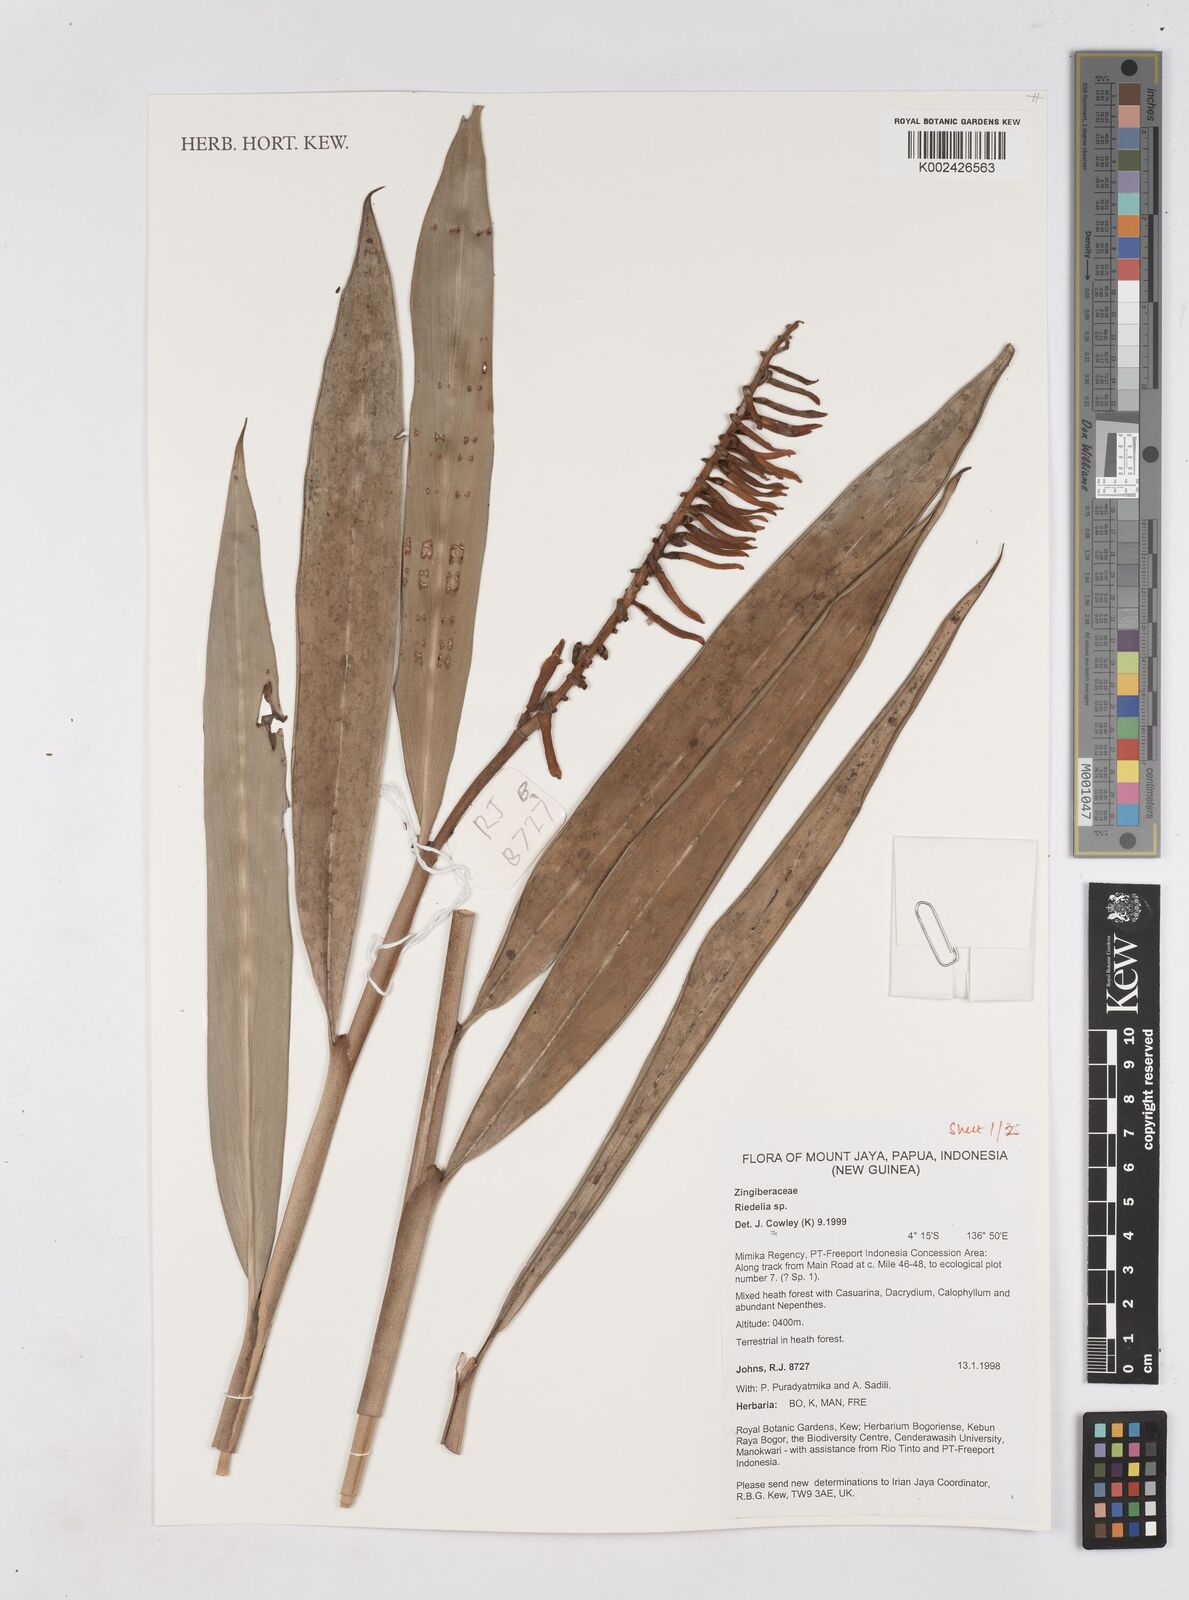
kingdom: Plantae
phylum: Tracheophyta
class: Liliopsida
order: Zingiberales
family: Zingiberaceae
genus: Riedelia
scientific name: Riedelia
